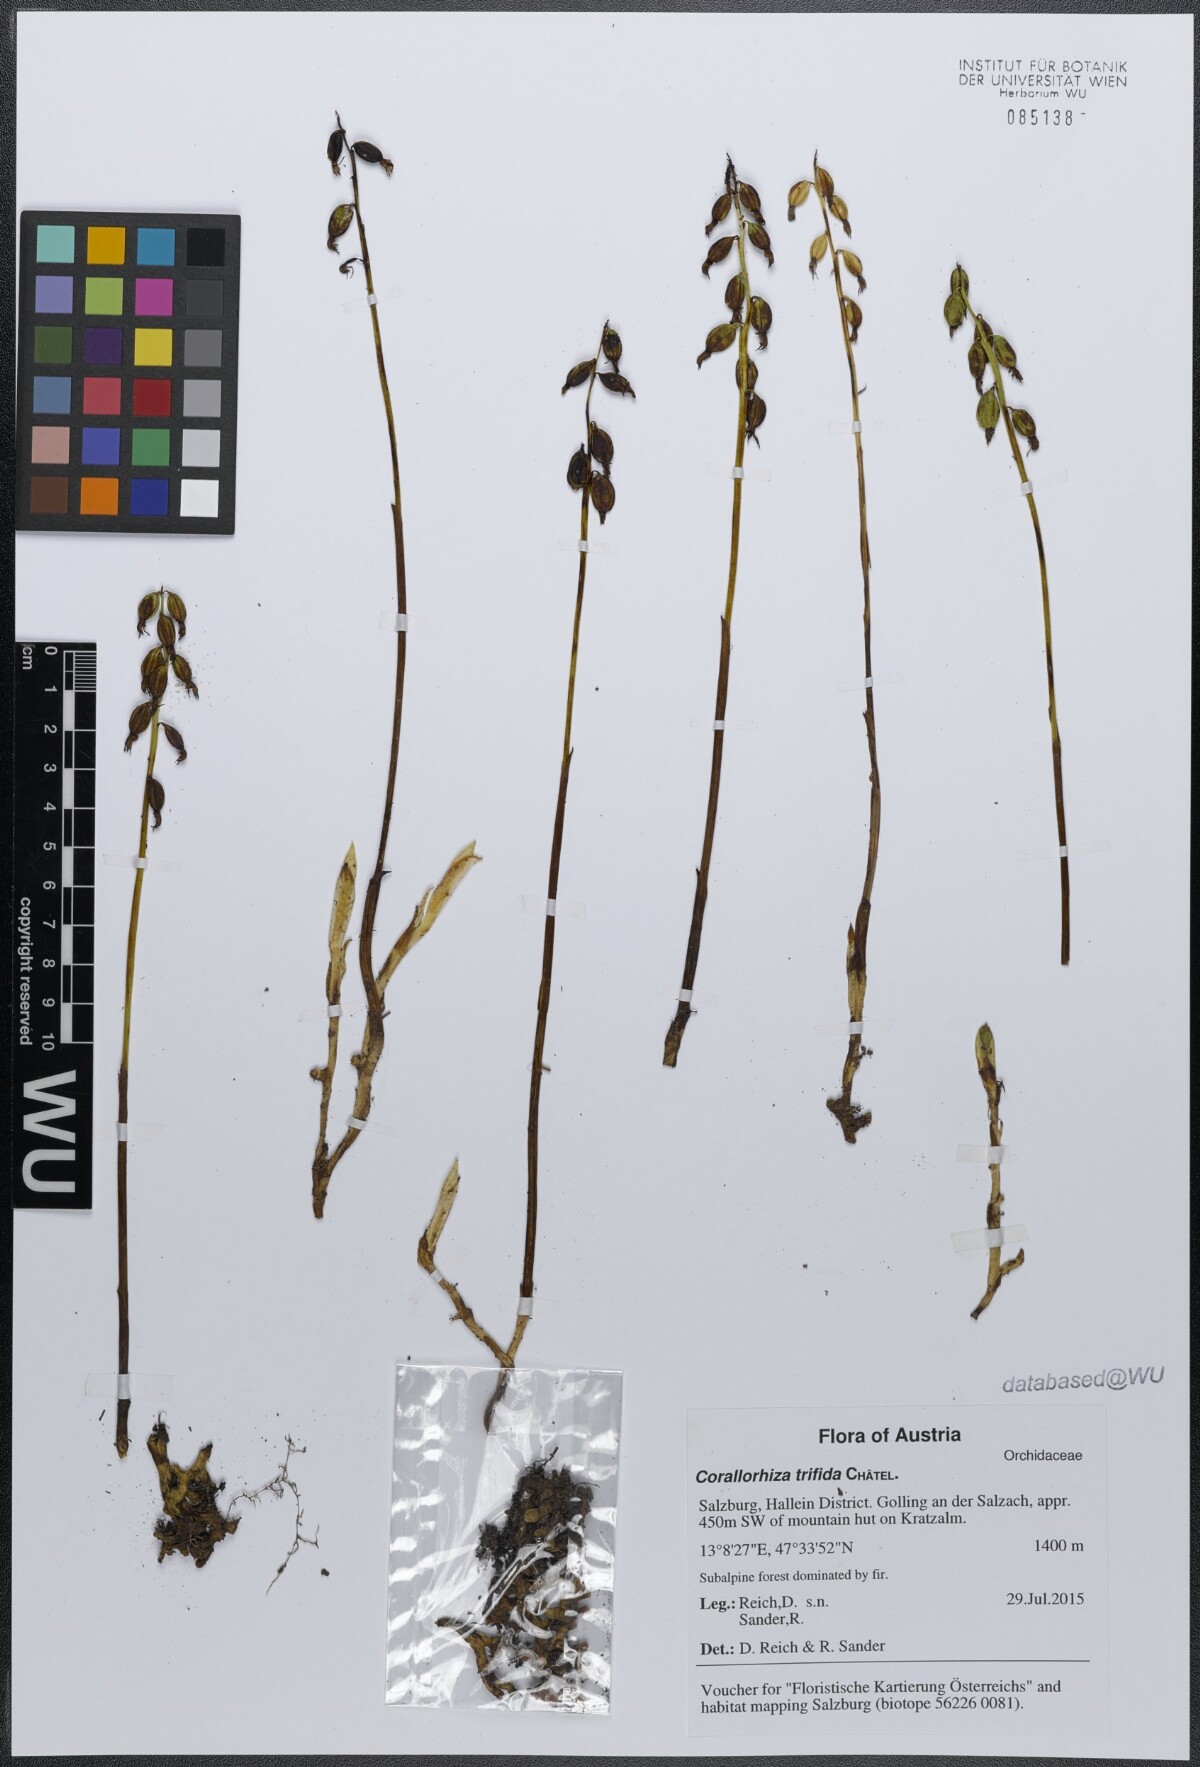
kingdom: Plantae
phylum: Tracheophyta
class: Liliopsida
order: Asparagales
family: Orchidaceae
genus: Corallorhiza
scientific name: Corallorhiza trifida
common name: Yellow coralroot
